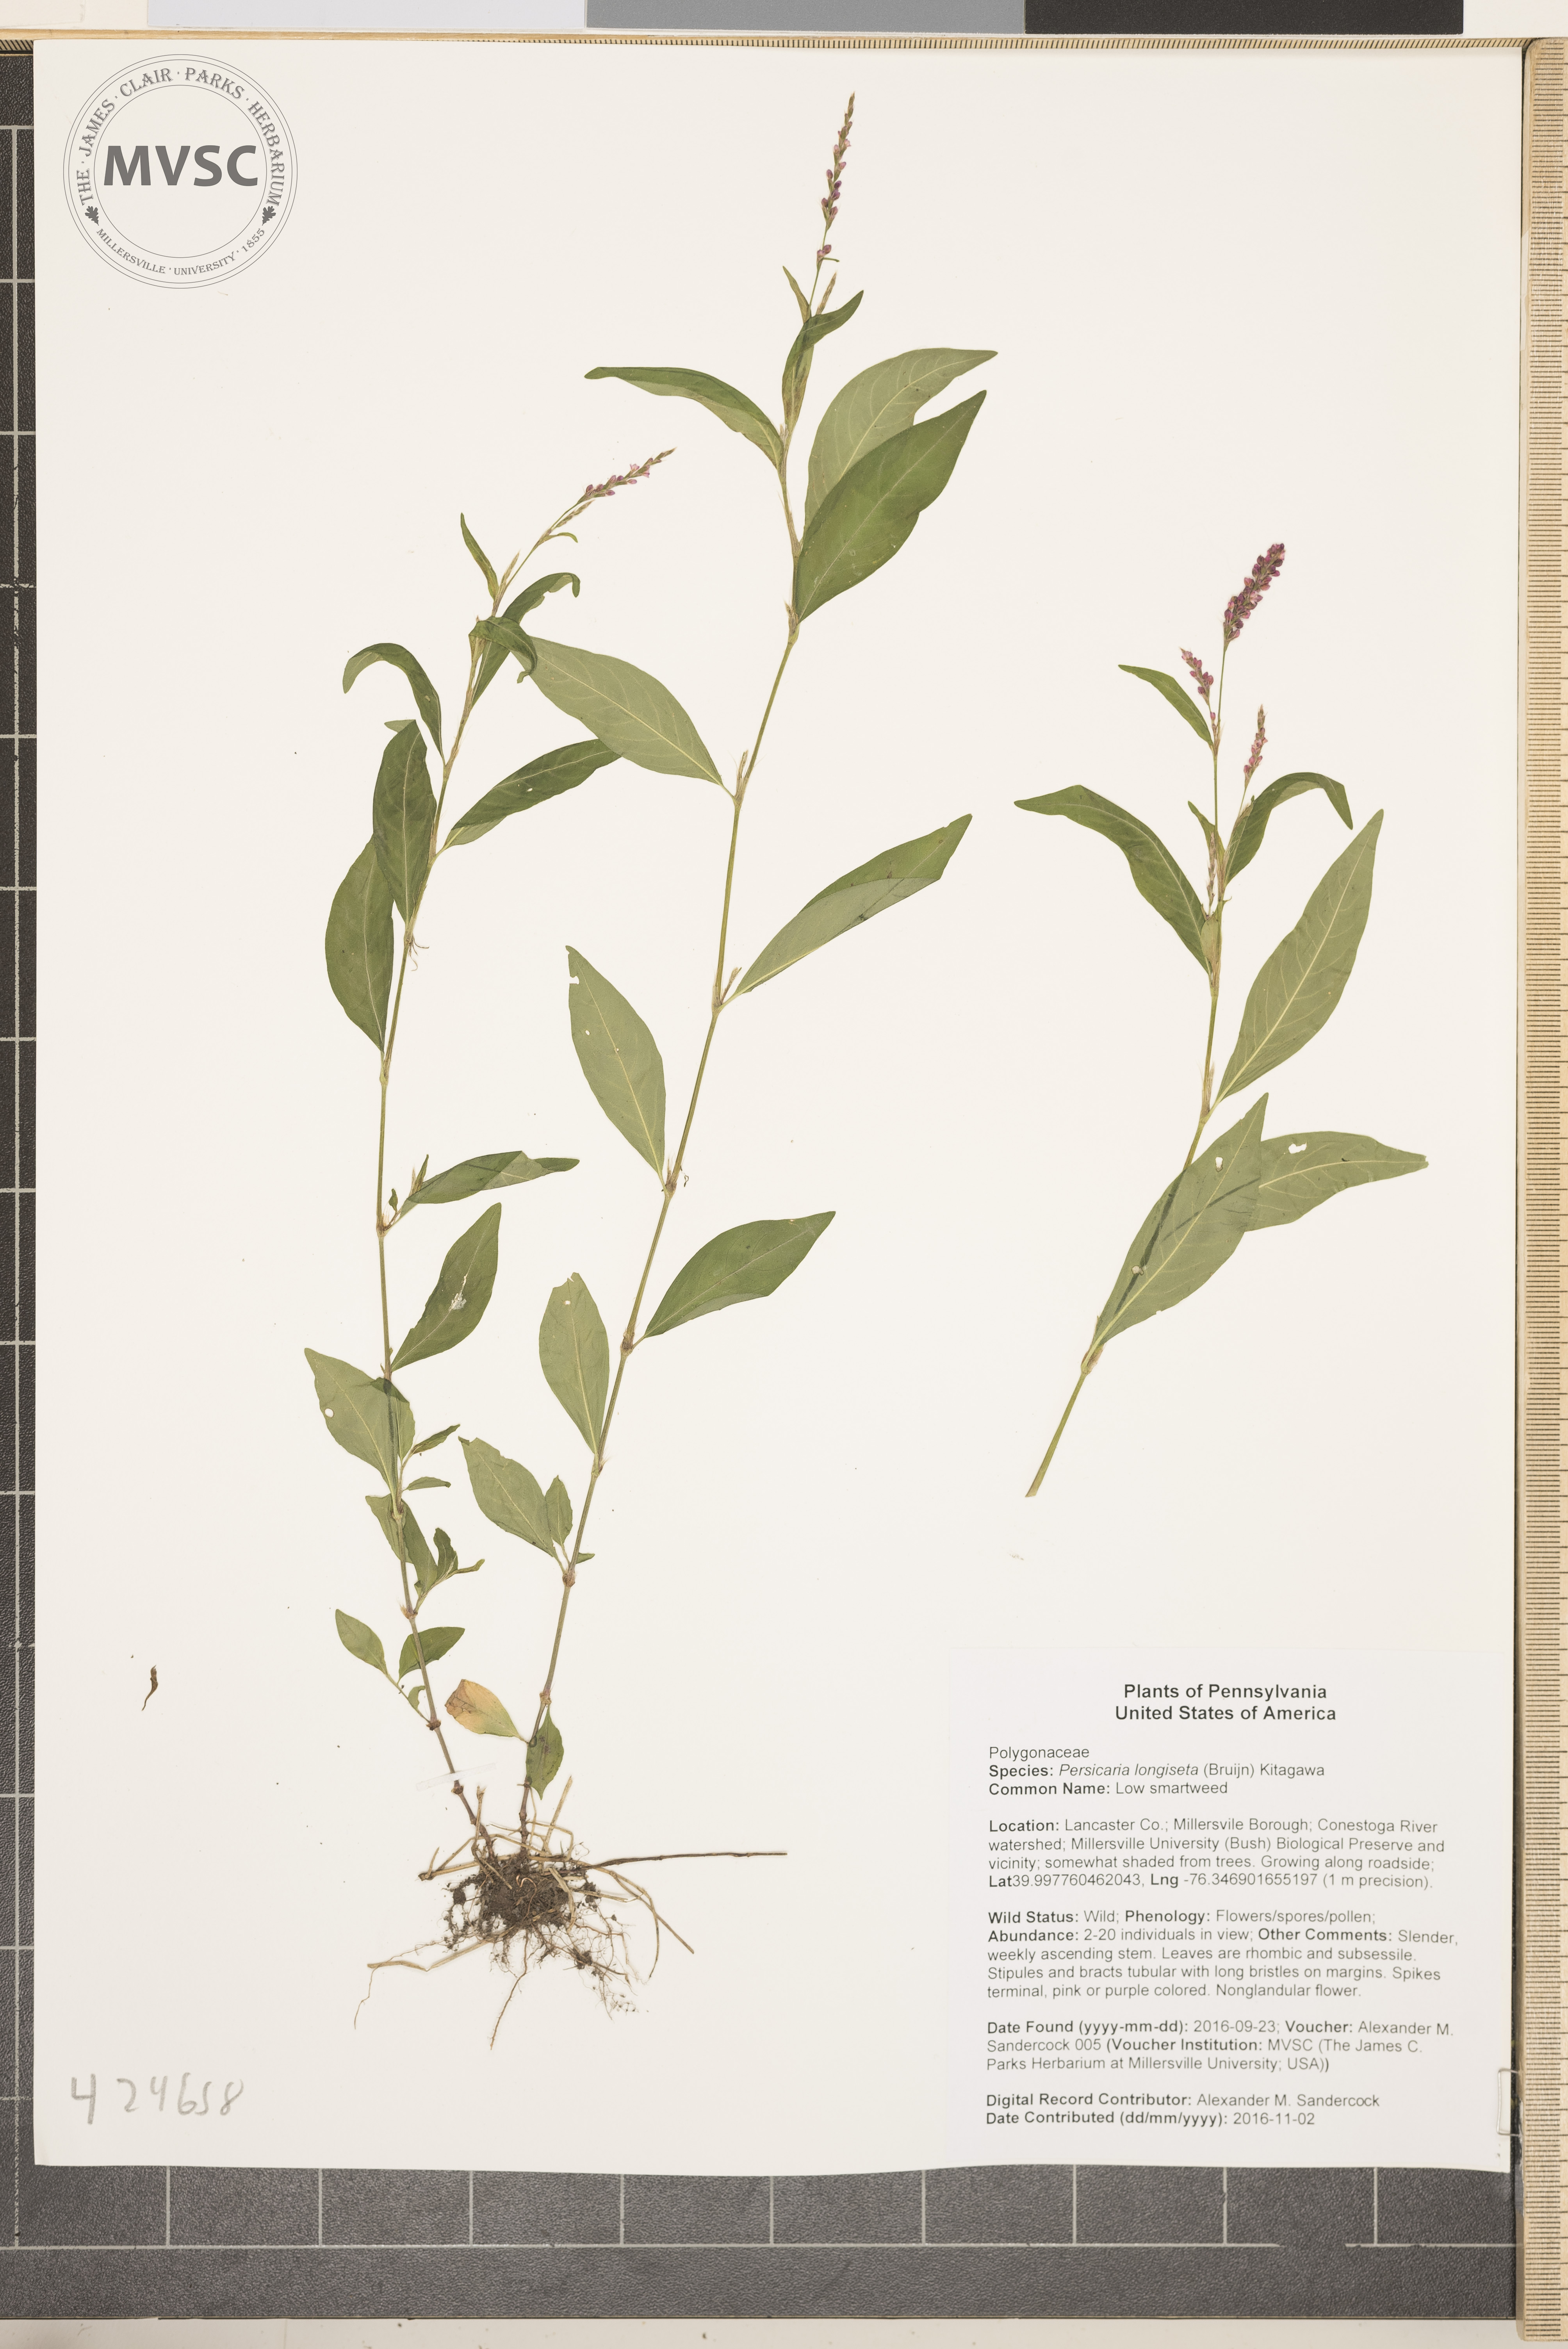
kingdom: Plantae
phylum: Tracheophyta
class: Magnoliopsida
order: Caryophyllales
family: Polygonaceae
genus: Persicaria
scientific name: Persicaria longiseta
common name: Low smartweed
